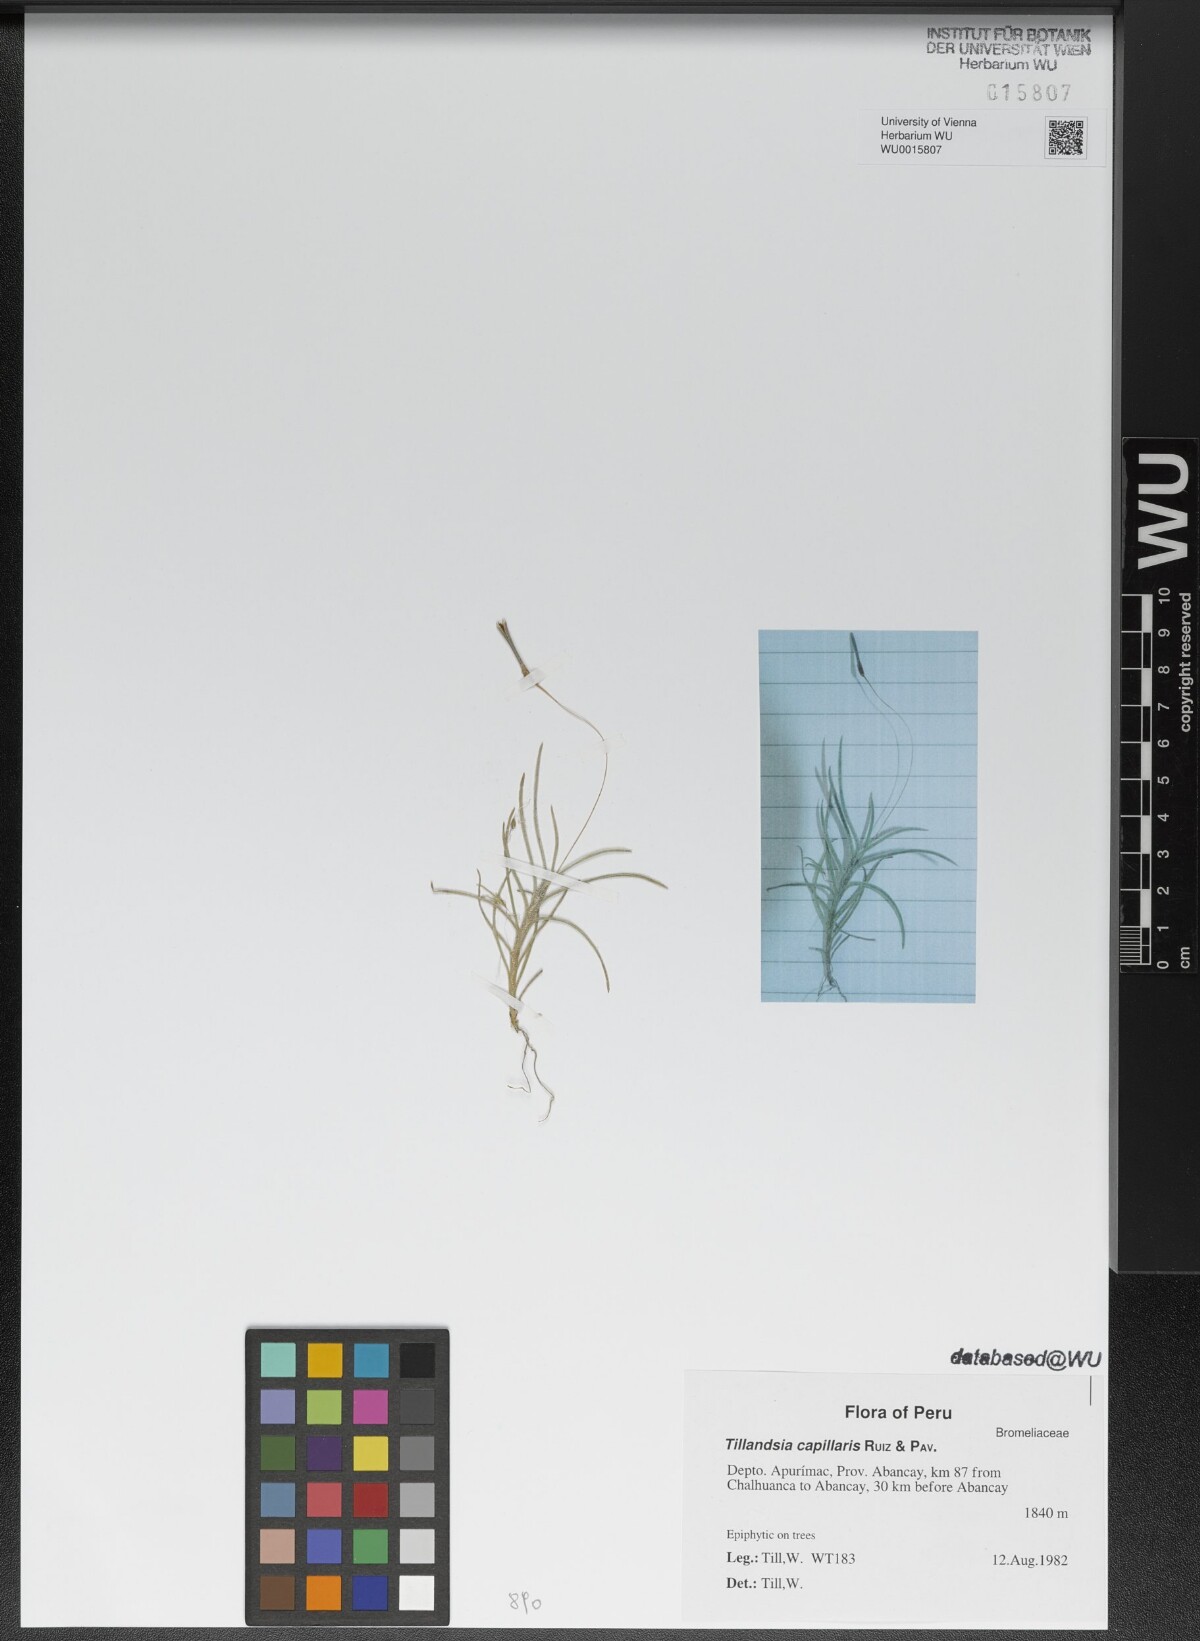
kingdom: Plantae
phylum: Tracheophyta
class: Liliopsida
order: Poales
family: Bromeliaceae
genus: Tillandsia
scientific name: Tillandsia capillaris
